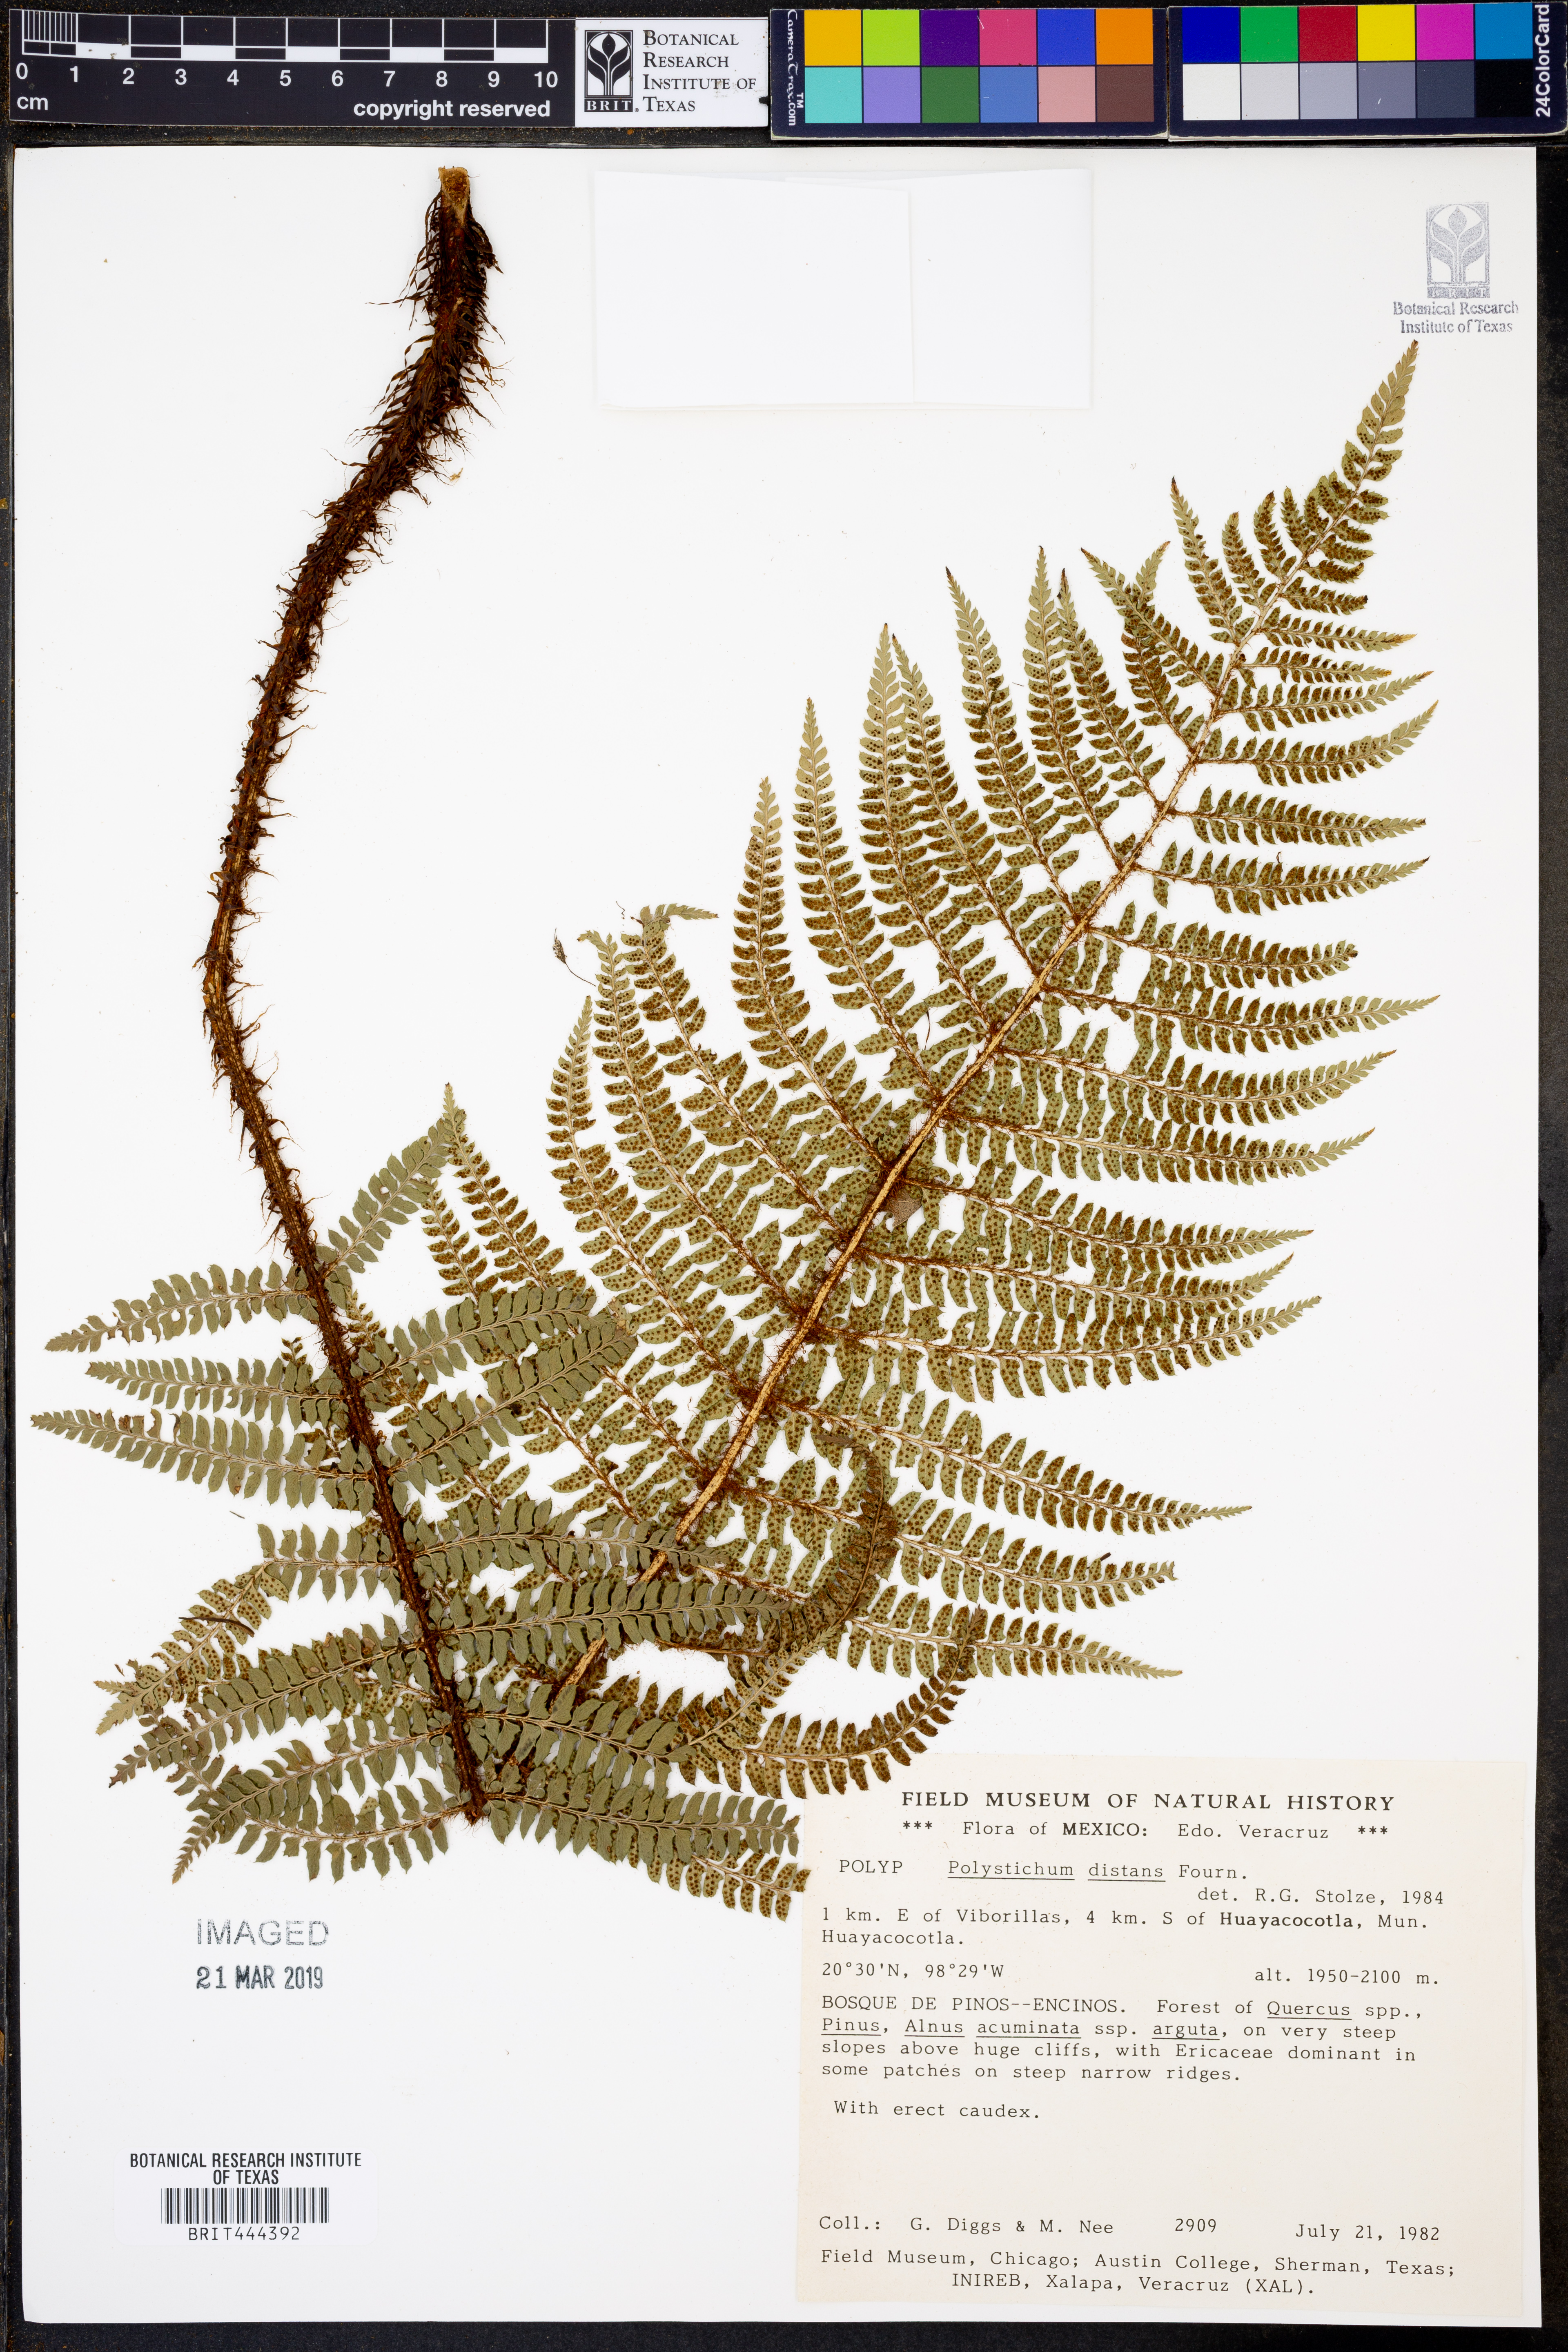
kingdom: Plantae
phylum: Tracheophyta
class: Polypodiopsida
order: Polypodiales
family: Dryopteridaceae
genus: Dryopteris
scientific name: Dryopteris cambrensis
